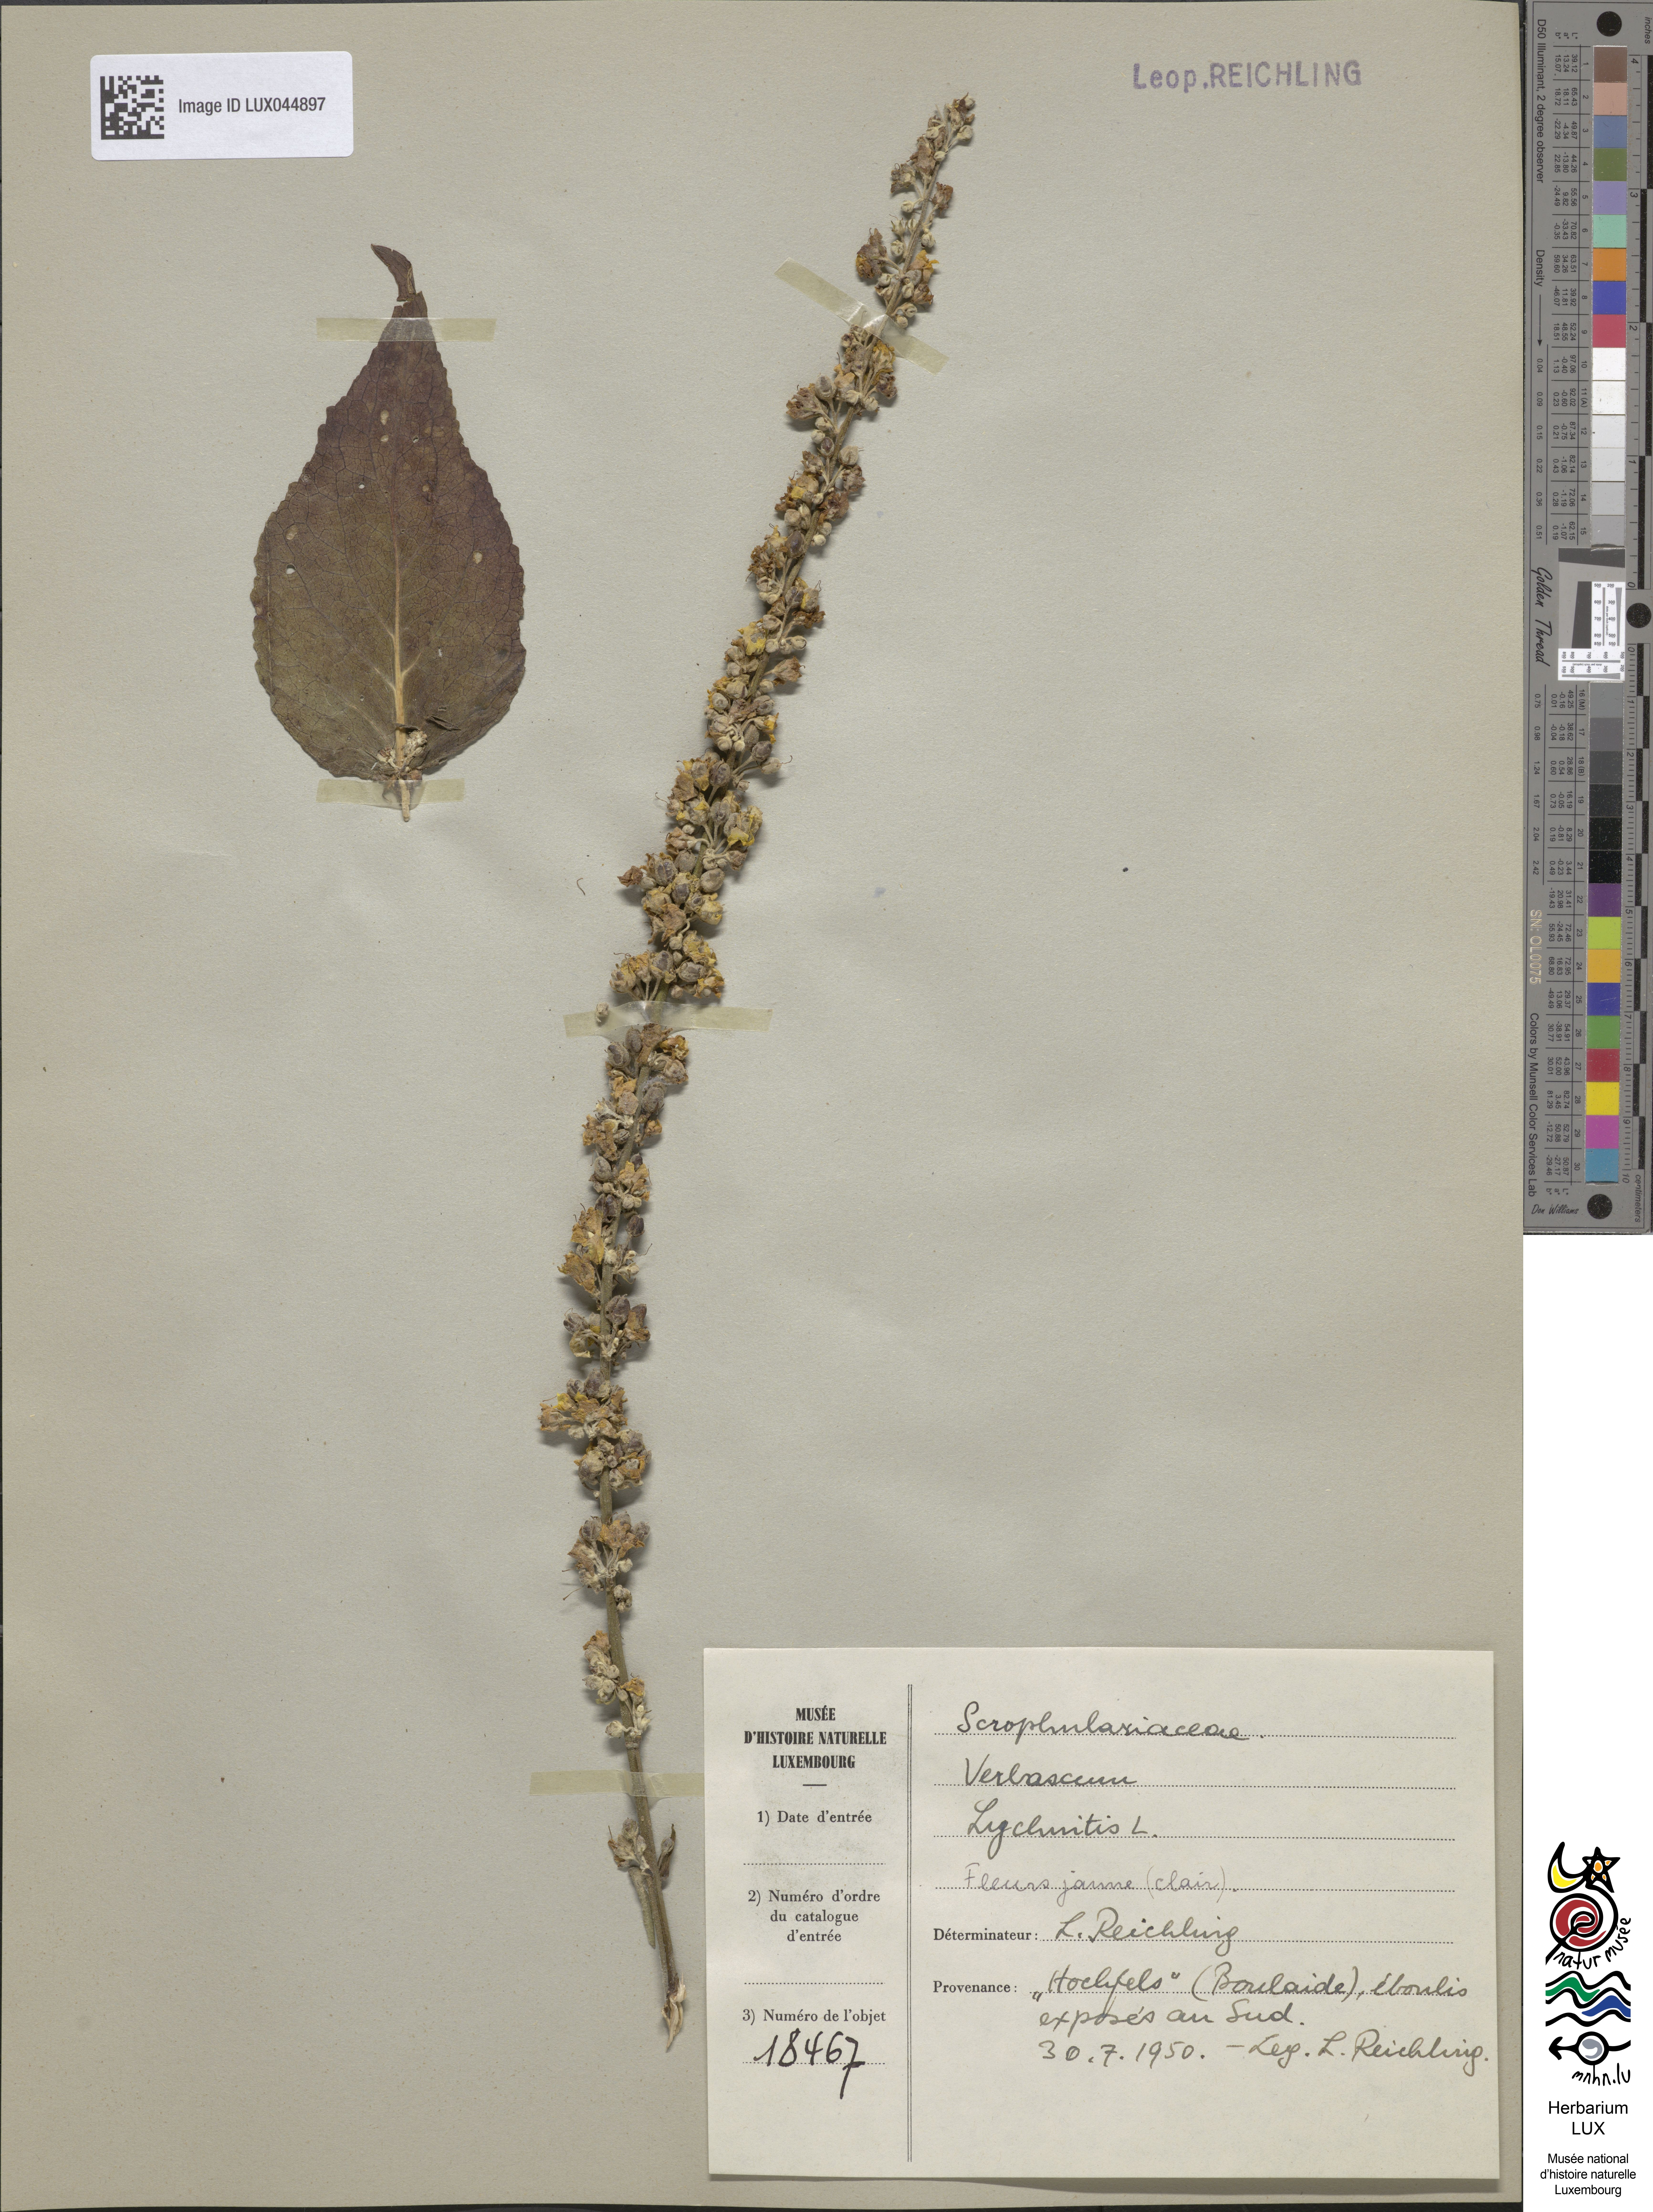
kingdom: Plantae
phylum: Tracheophyta
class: Magnoliopsida
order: Lamiales
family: Scrophulariaceae
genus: Verbascum
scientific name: Verbascum lychnitis
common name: White mullein
